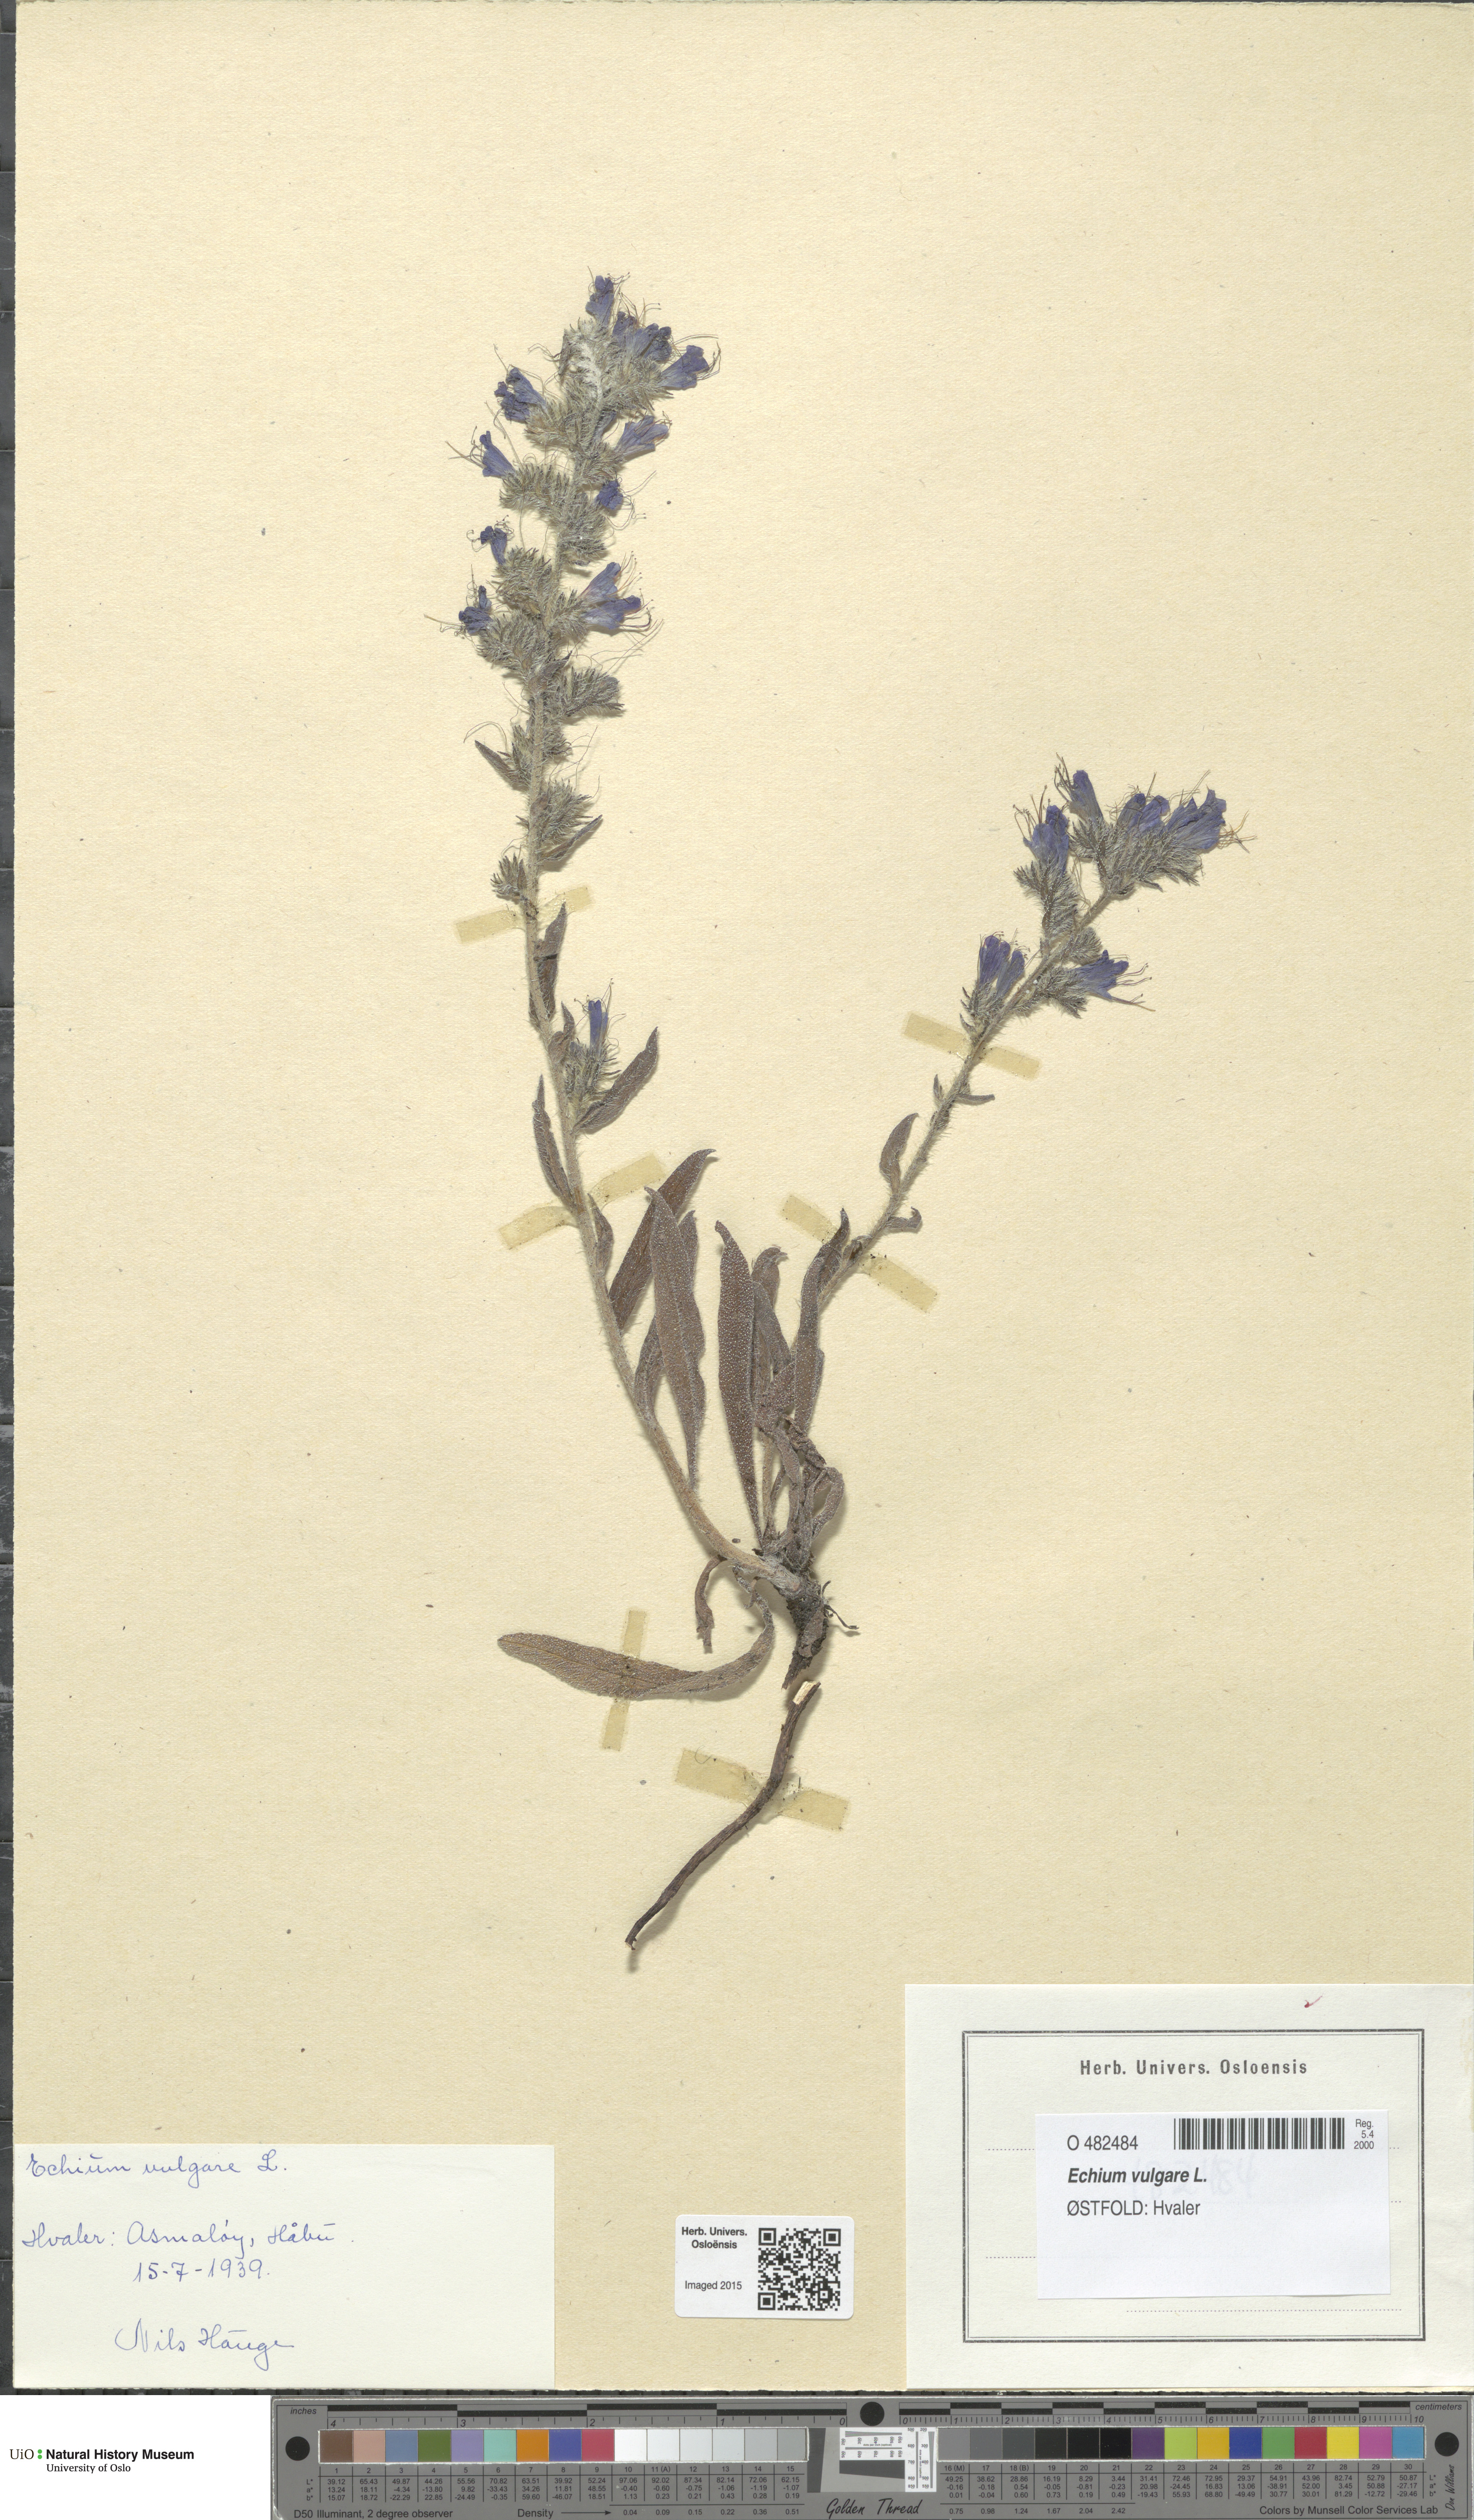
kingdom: Plantae
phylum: Tracheophyta
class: Magnoliopsida
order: Boraginales
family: Boraginaceae
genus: Echium
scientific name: Echium vulgare
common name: Common viper's bugloss
